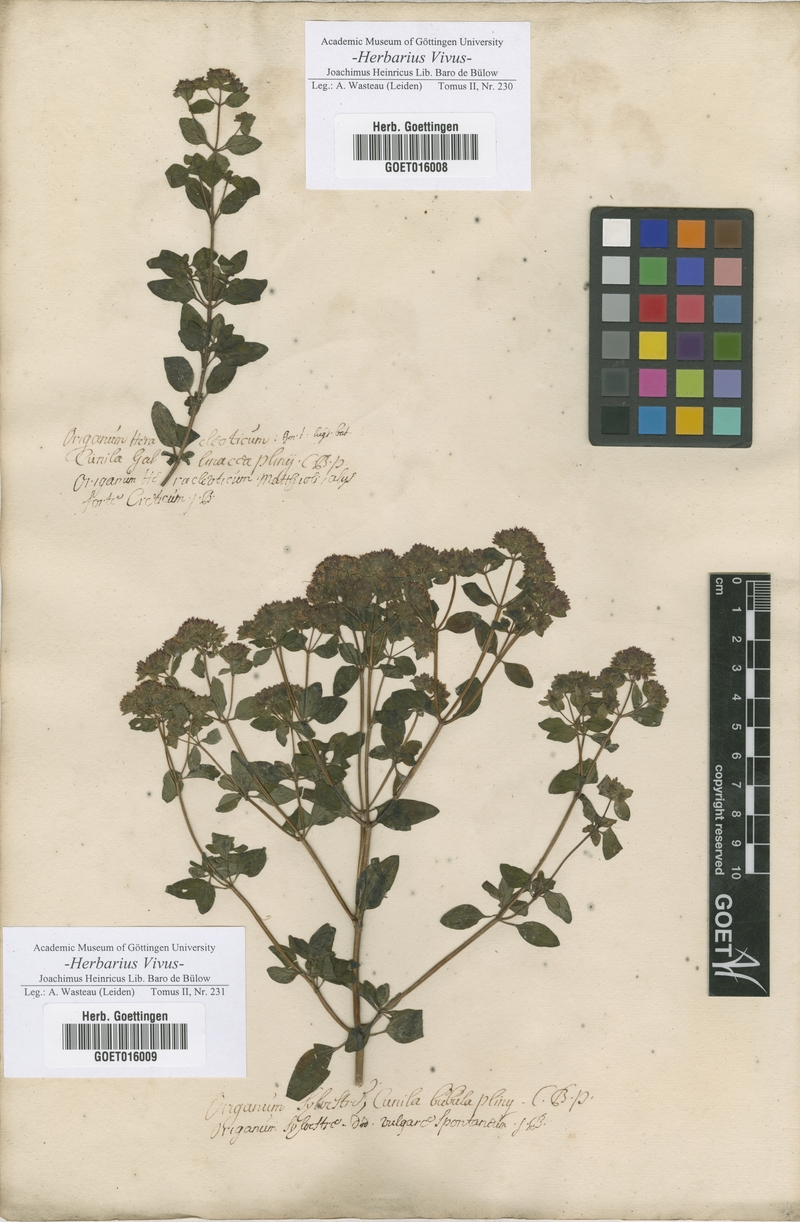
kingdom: Plantae
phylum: Tracheophyta
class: Magnoliopsida
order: Lamiales
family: Lamiaceae
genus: Origanum
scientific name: Origanum vulgare
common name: Wild marjoram
